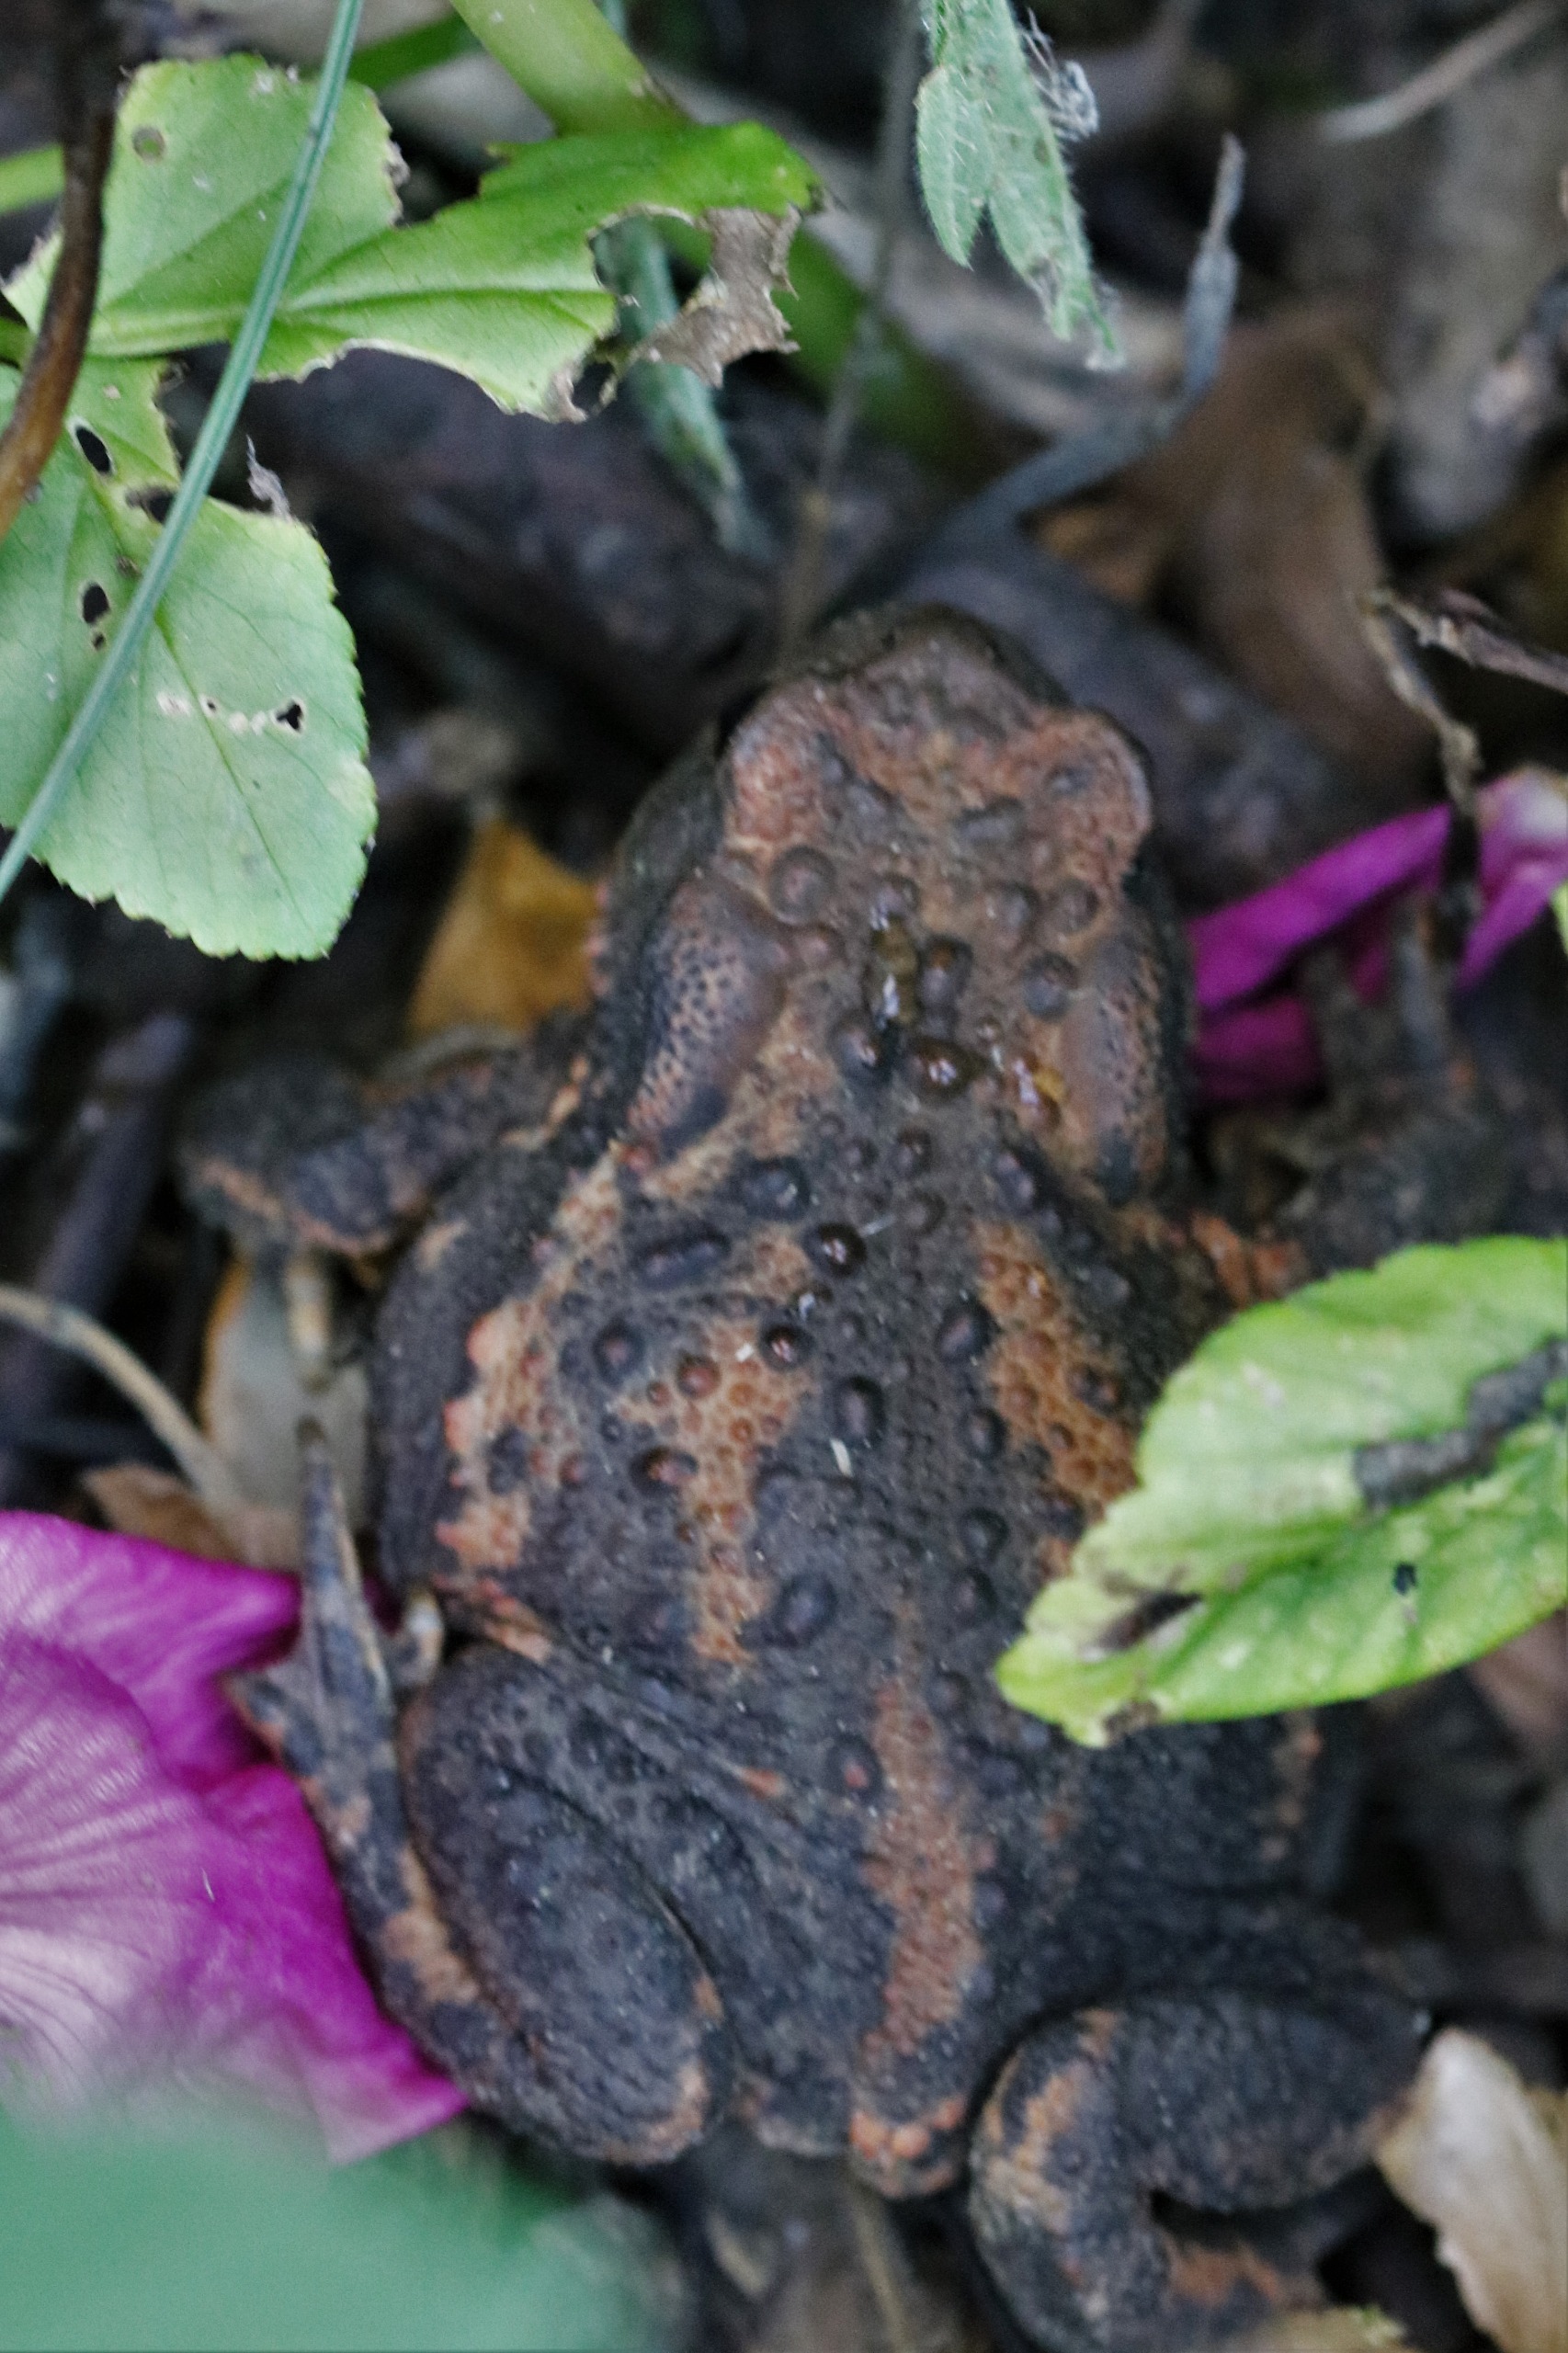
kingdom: Animalia
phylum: Chordata
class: Amphibia
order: Anura
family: Bufonidae
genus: Bufo
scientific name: Bufo bufo
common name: Skrubtudse
